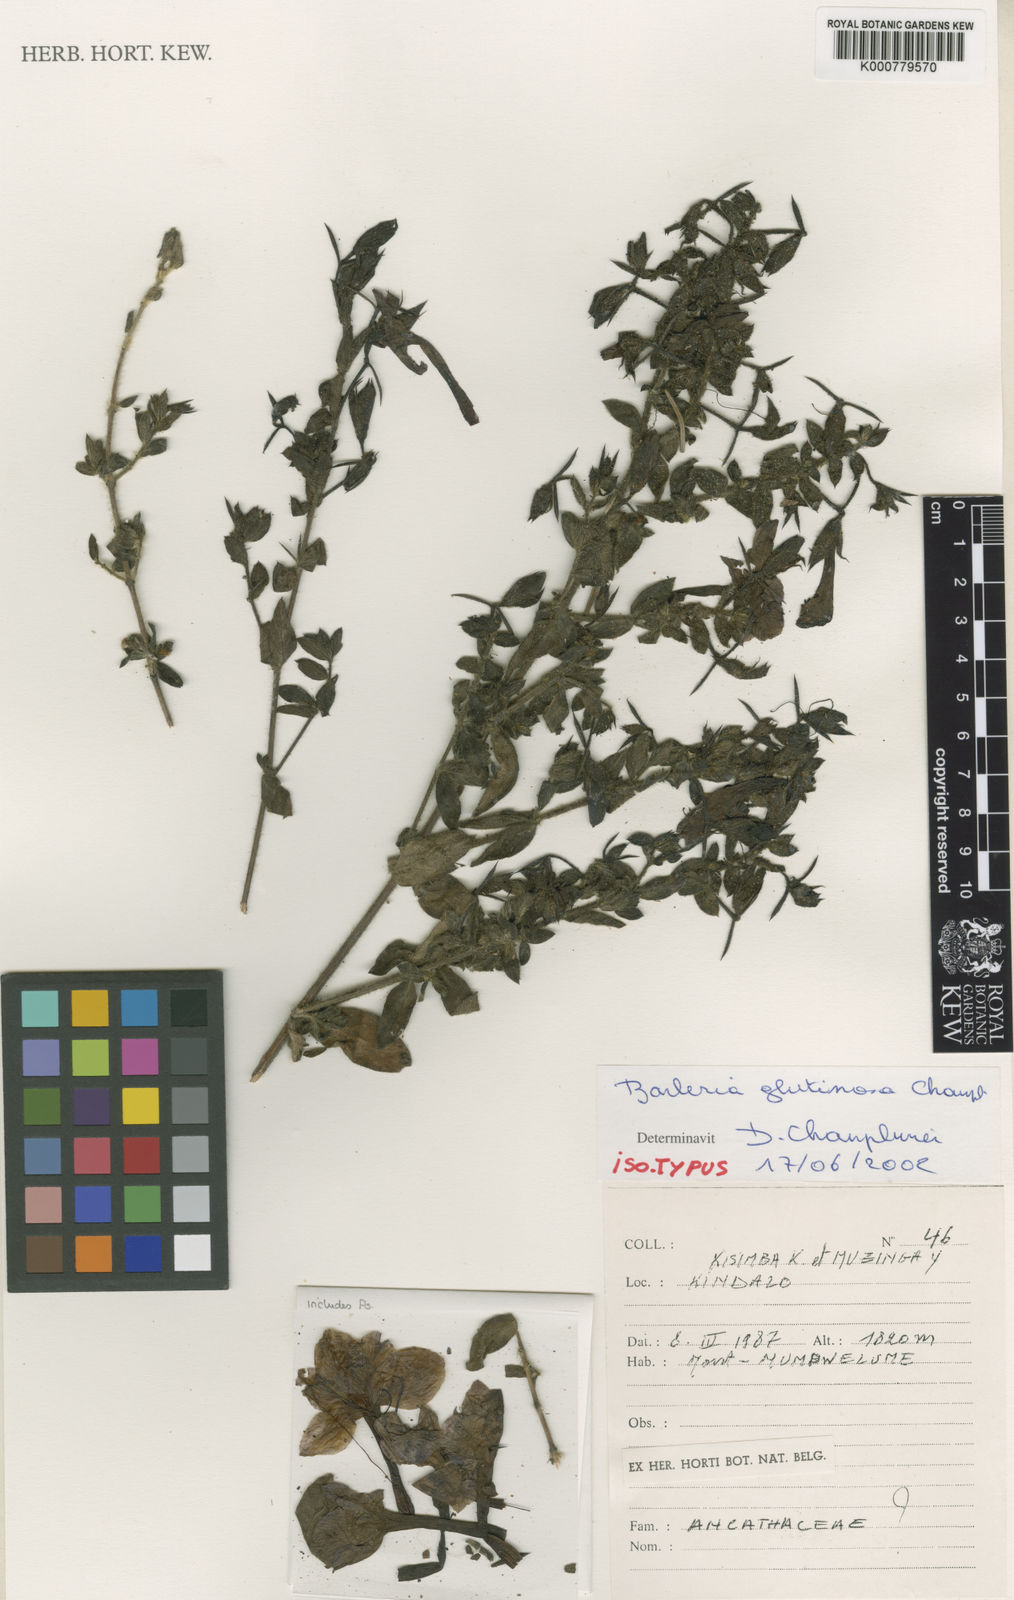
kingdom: Plantae
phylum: Tracheophyta
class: Magnoliopsida
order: Lamiales
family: Acanthaceae
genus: Barleria
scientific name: Barleria glutinosa
